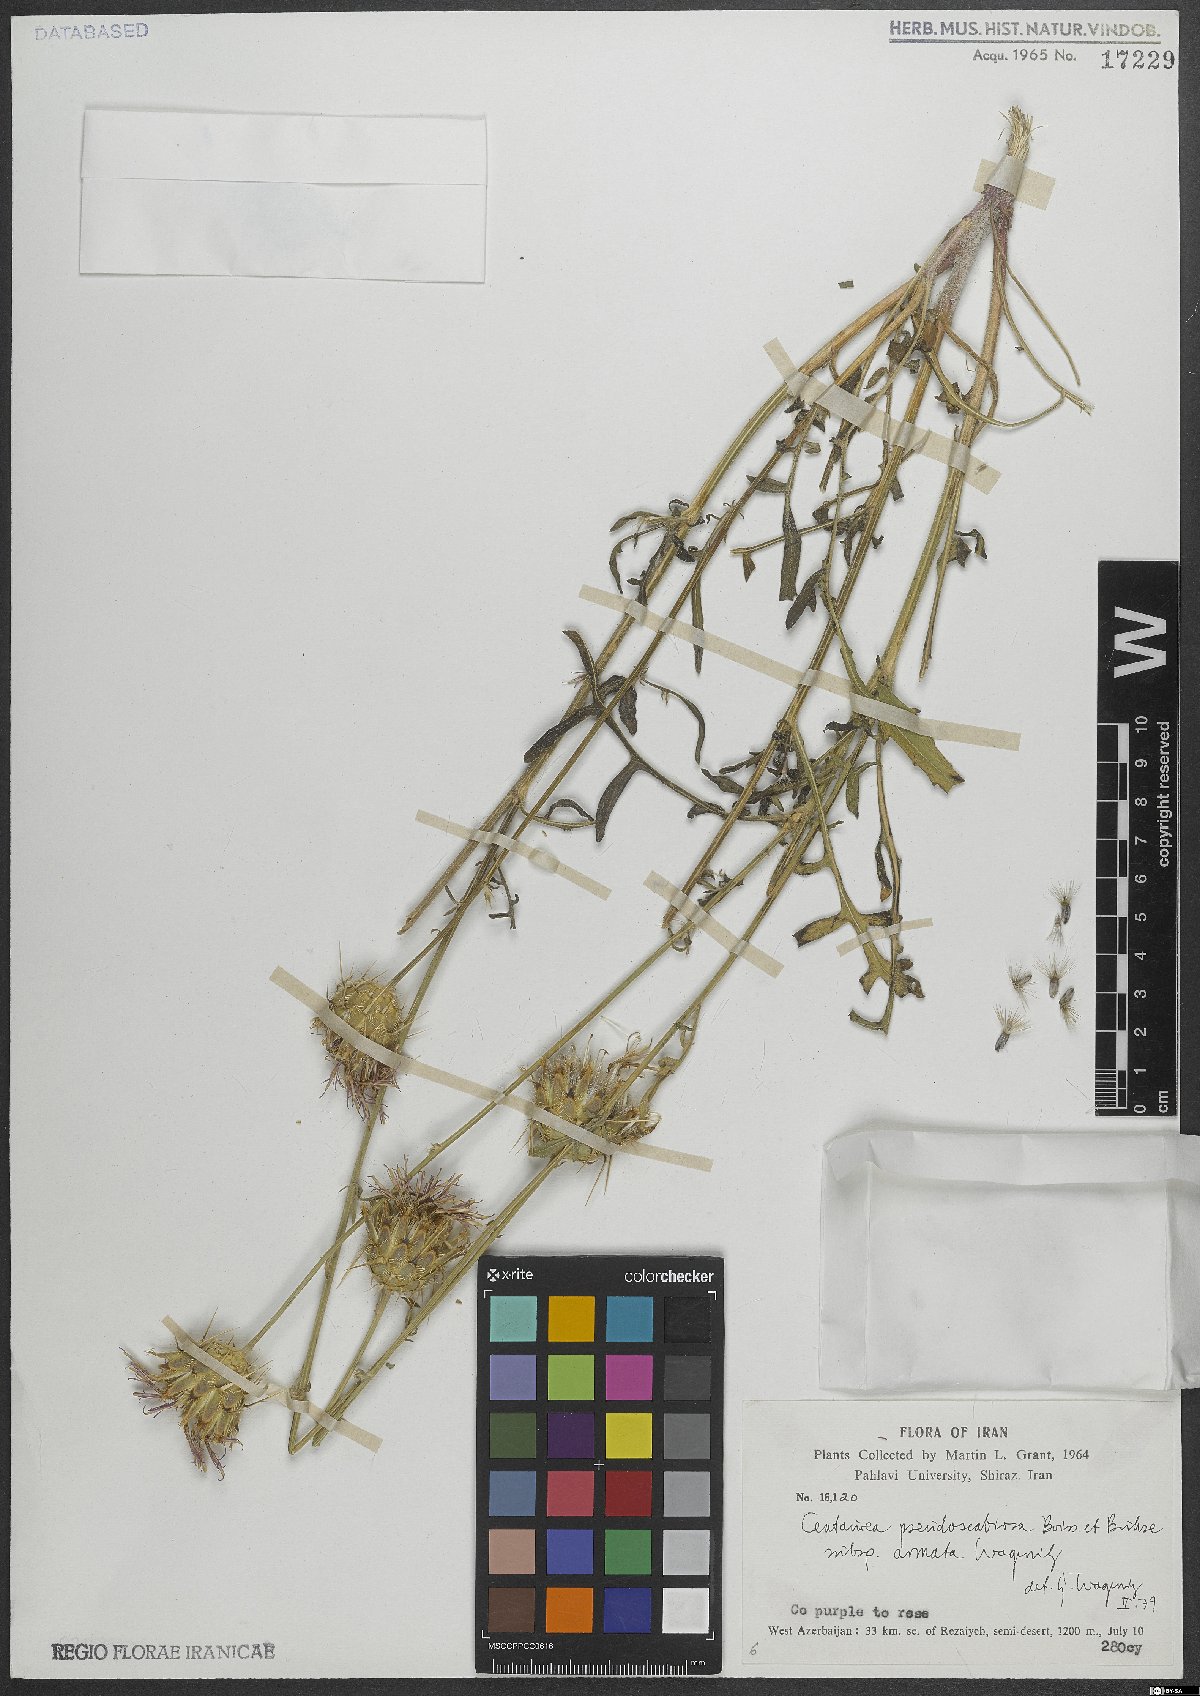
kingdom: Plantae
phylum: Tracheophyta
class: Magnoliopsida
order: Asterales
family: Asteraceae
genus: Centaurea
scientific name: Centaurea pseudoscabiosa
